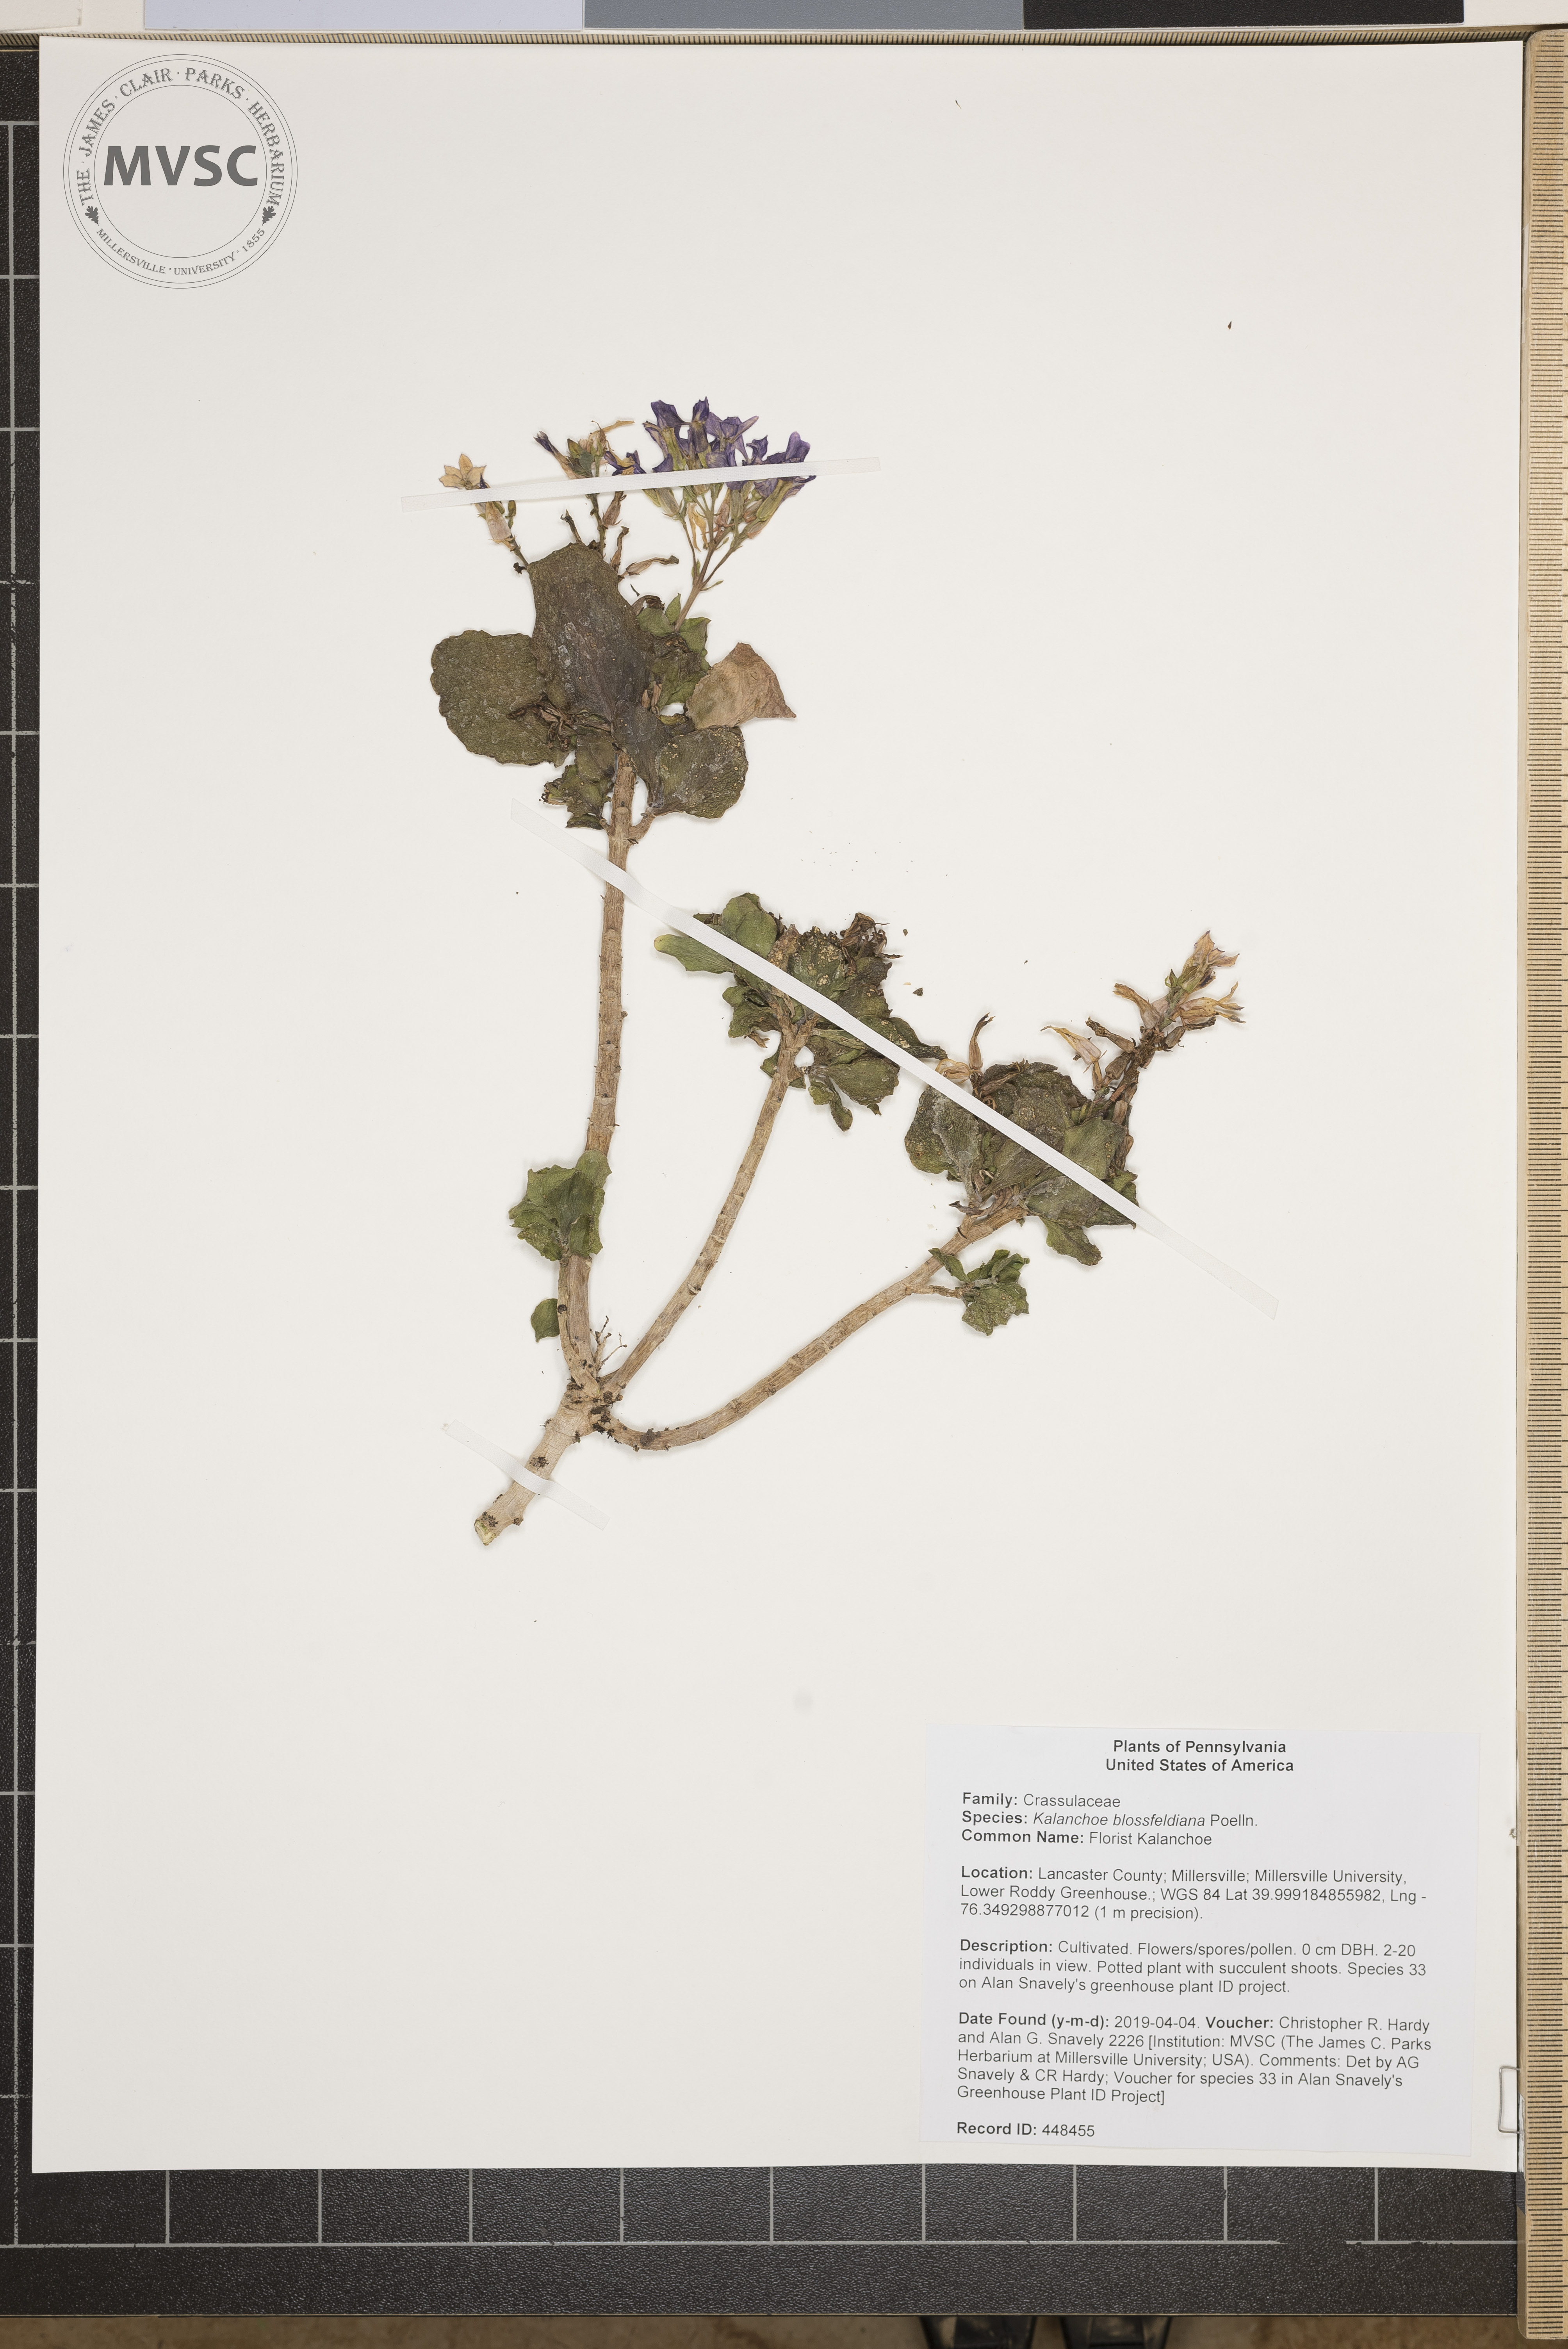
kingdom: Plantae
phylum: Tracheophyta
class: Magnoliopsida
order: Saxifragales
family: Crassulaceae
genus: Kalanchoe
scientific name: Kalanchoe blossfeldiana
